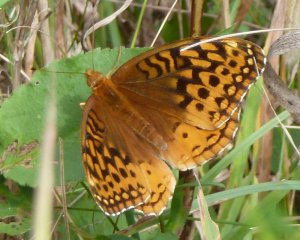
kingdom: Animalia
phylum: Arthropoda
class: Insecta
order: Lepidoptera
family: Nymphalidae
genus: Speyeria
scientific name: Speyeria cybele
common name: Great Spangled Fritillary
